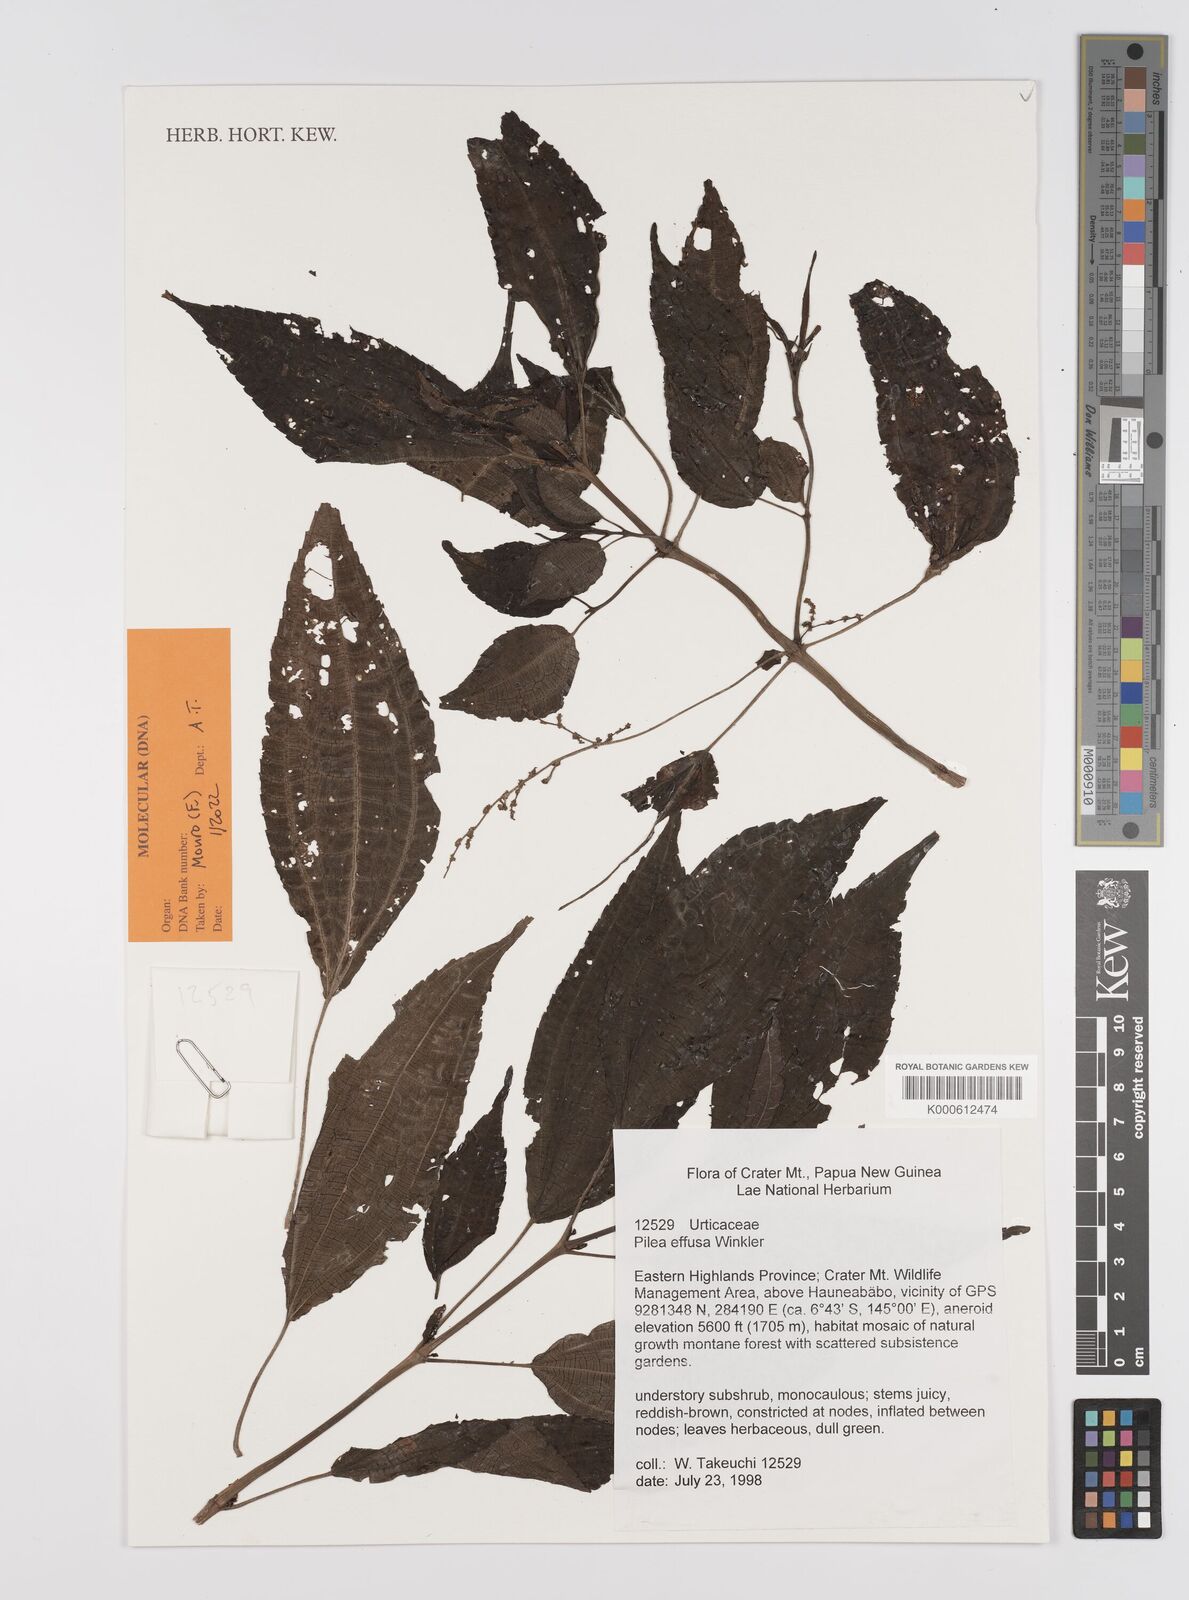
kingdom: Plantae
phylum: Tracheophyta
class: Magnoliopsida
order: Rosales
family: Urticaceae
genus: Pilea
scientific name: Pilea effusa
